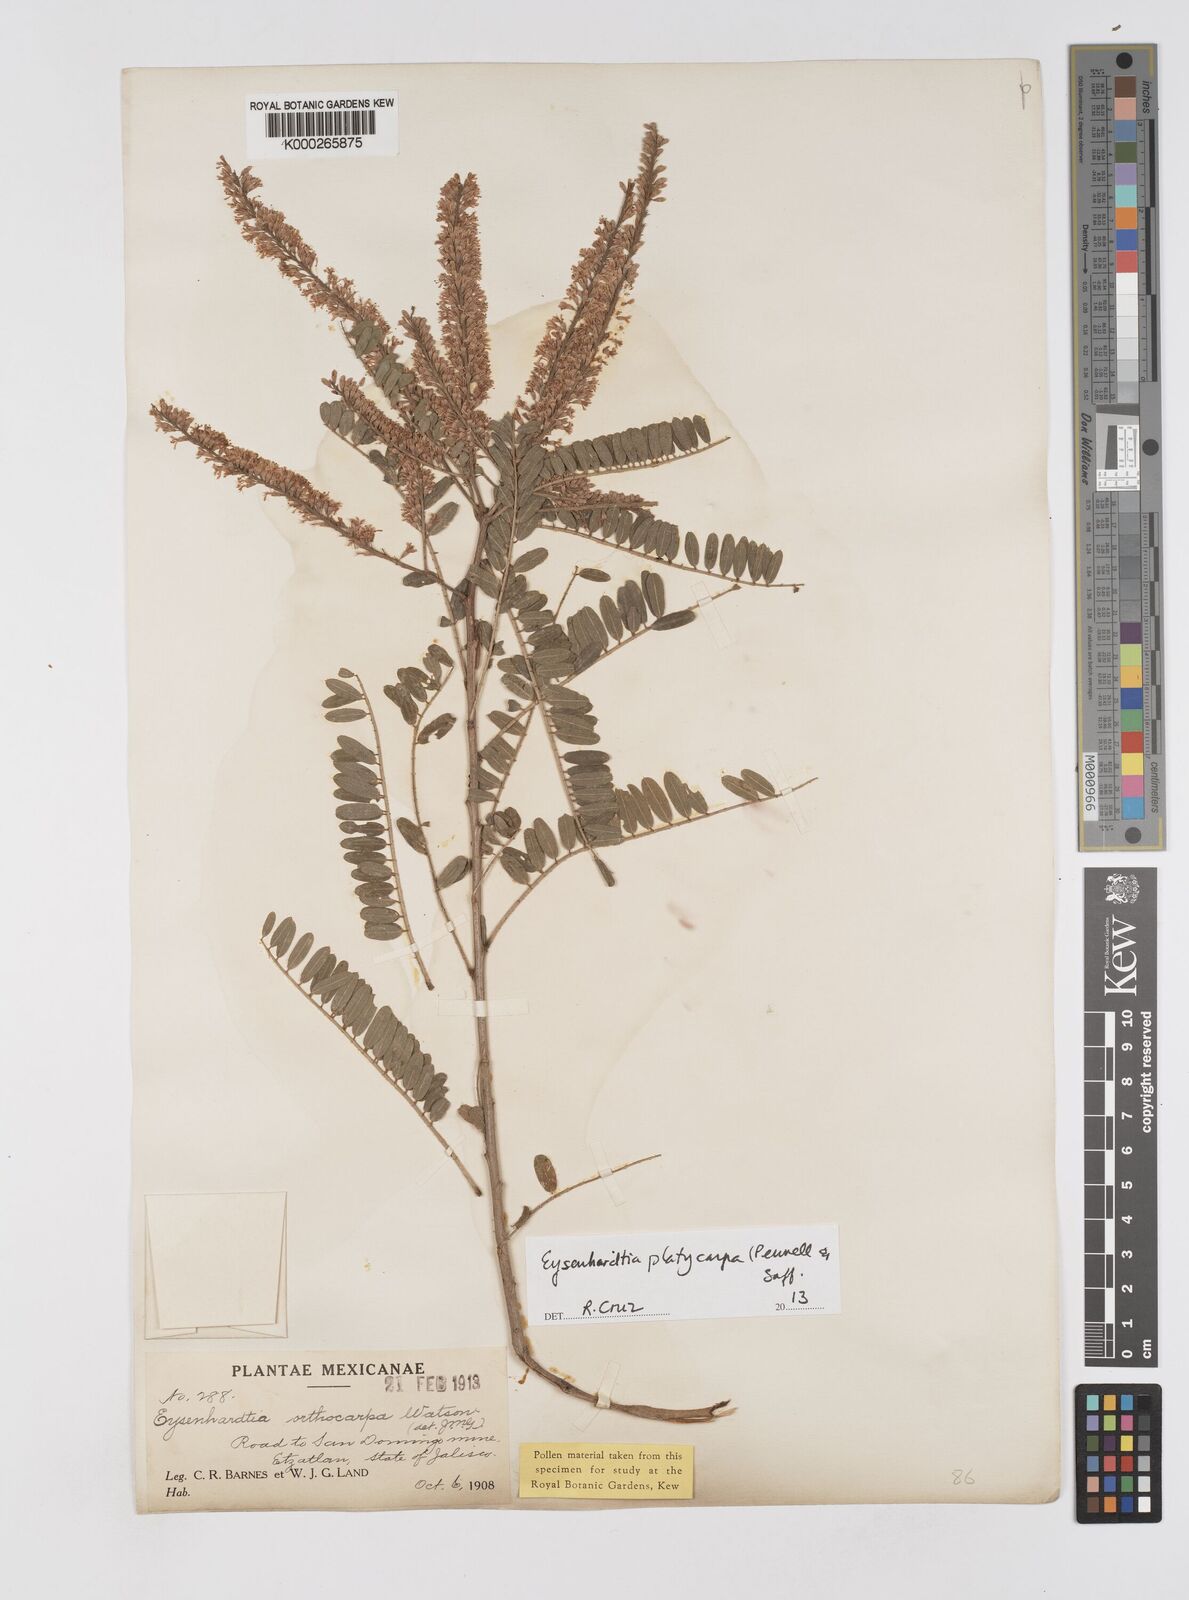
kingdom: Plantae
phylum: Tracheophyta
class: Magnoliopsida
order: Fabales
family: Fabaceae
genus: Eysenhardtia
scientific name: Eysenhardtia platycarpa
